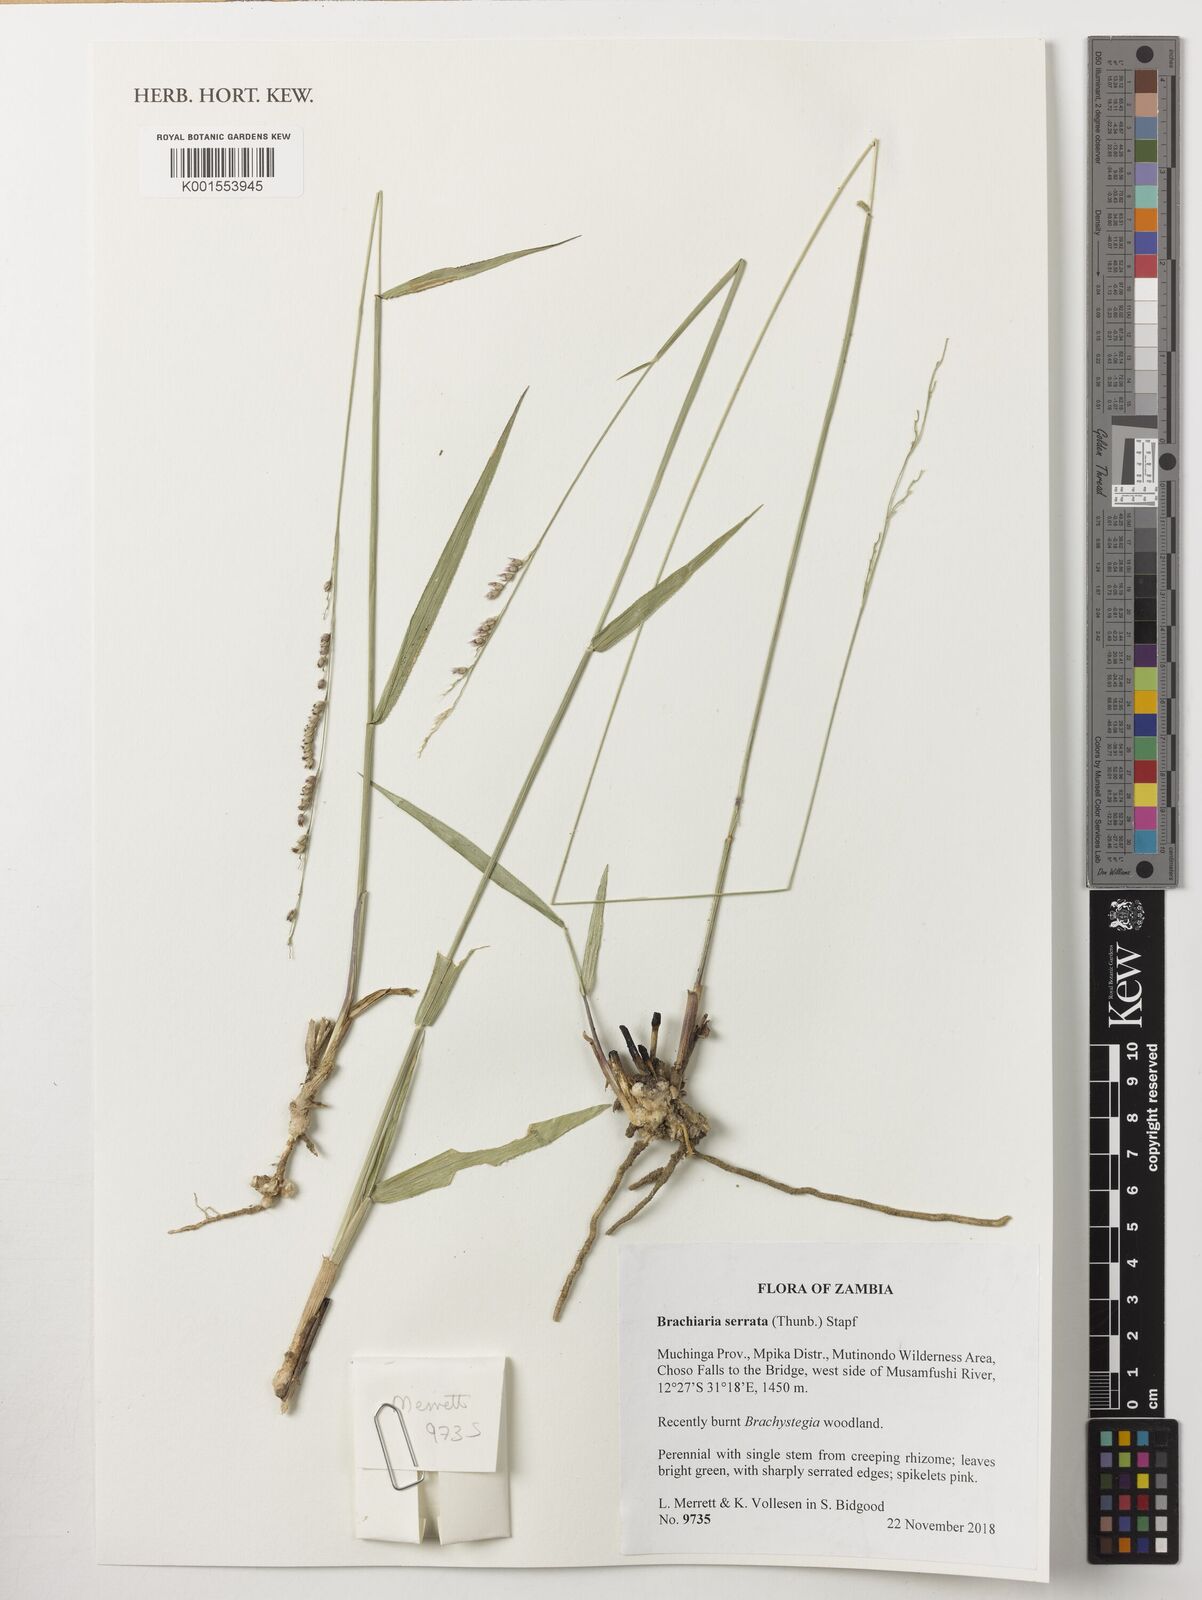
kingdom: Plantae
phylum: Tracheophyta
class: Liliopsida
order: Poales
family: Poaceae
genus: Urochloa
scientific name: Urochloa serrata
